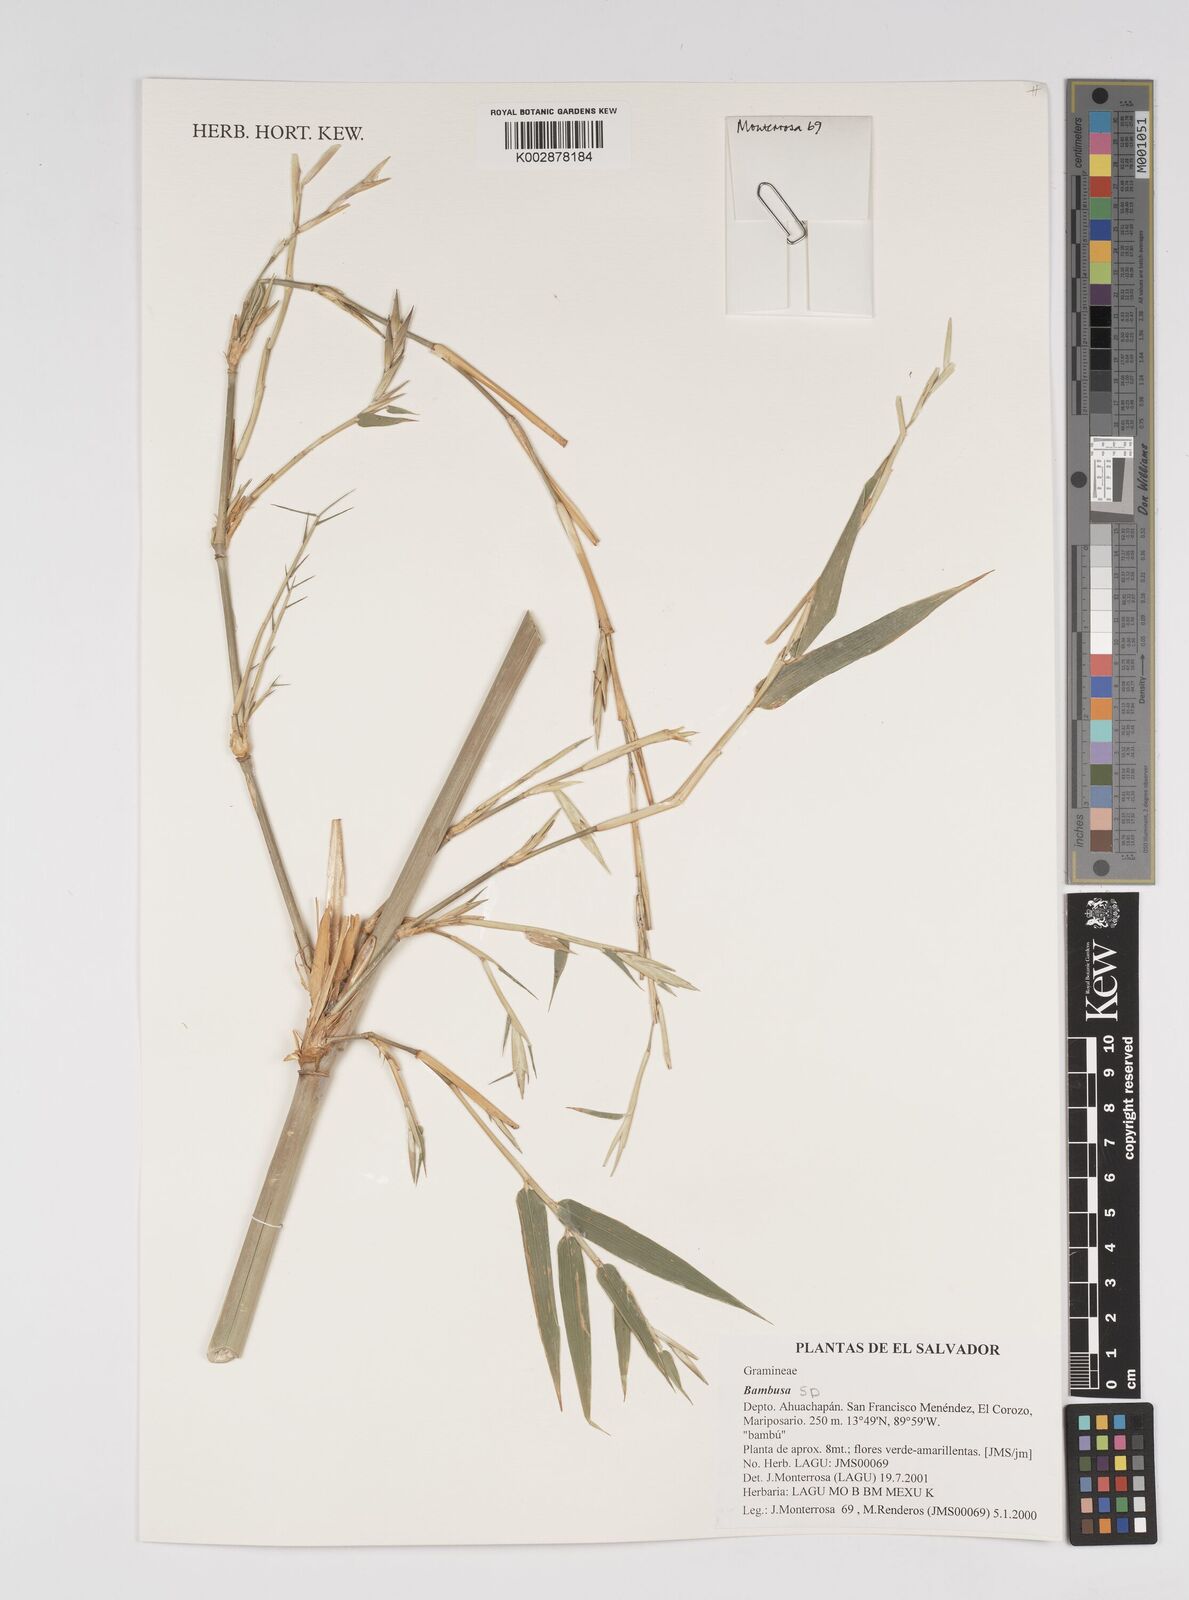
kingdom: Plantae
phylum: Tracheophyta
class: Liliopsida
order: Poales
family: Poaceae
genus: Bambusa
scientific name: Bambusa
